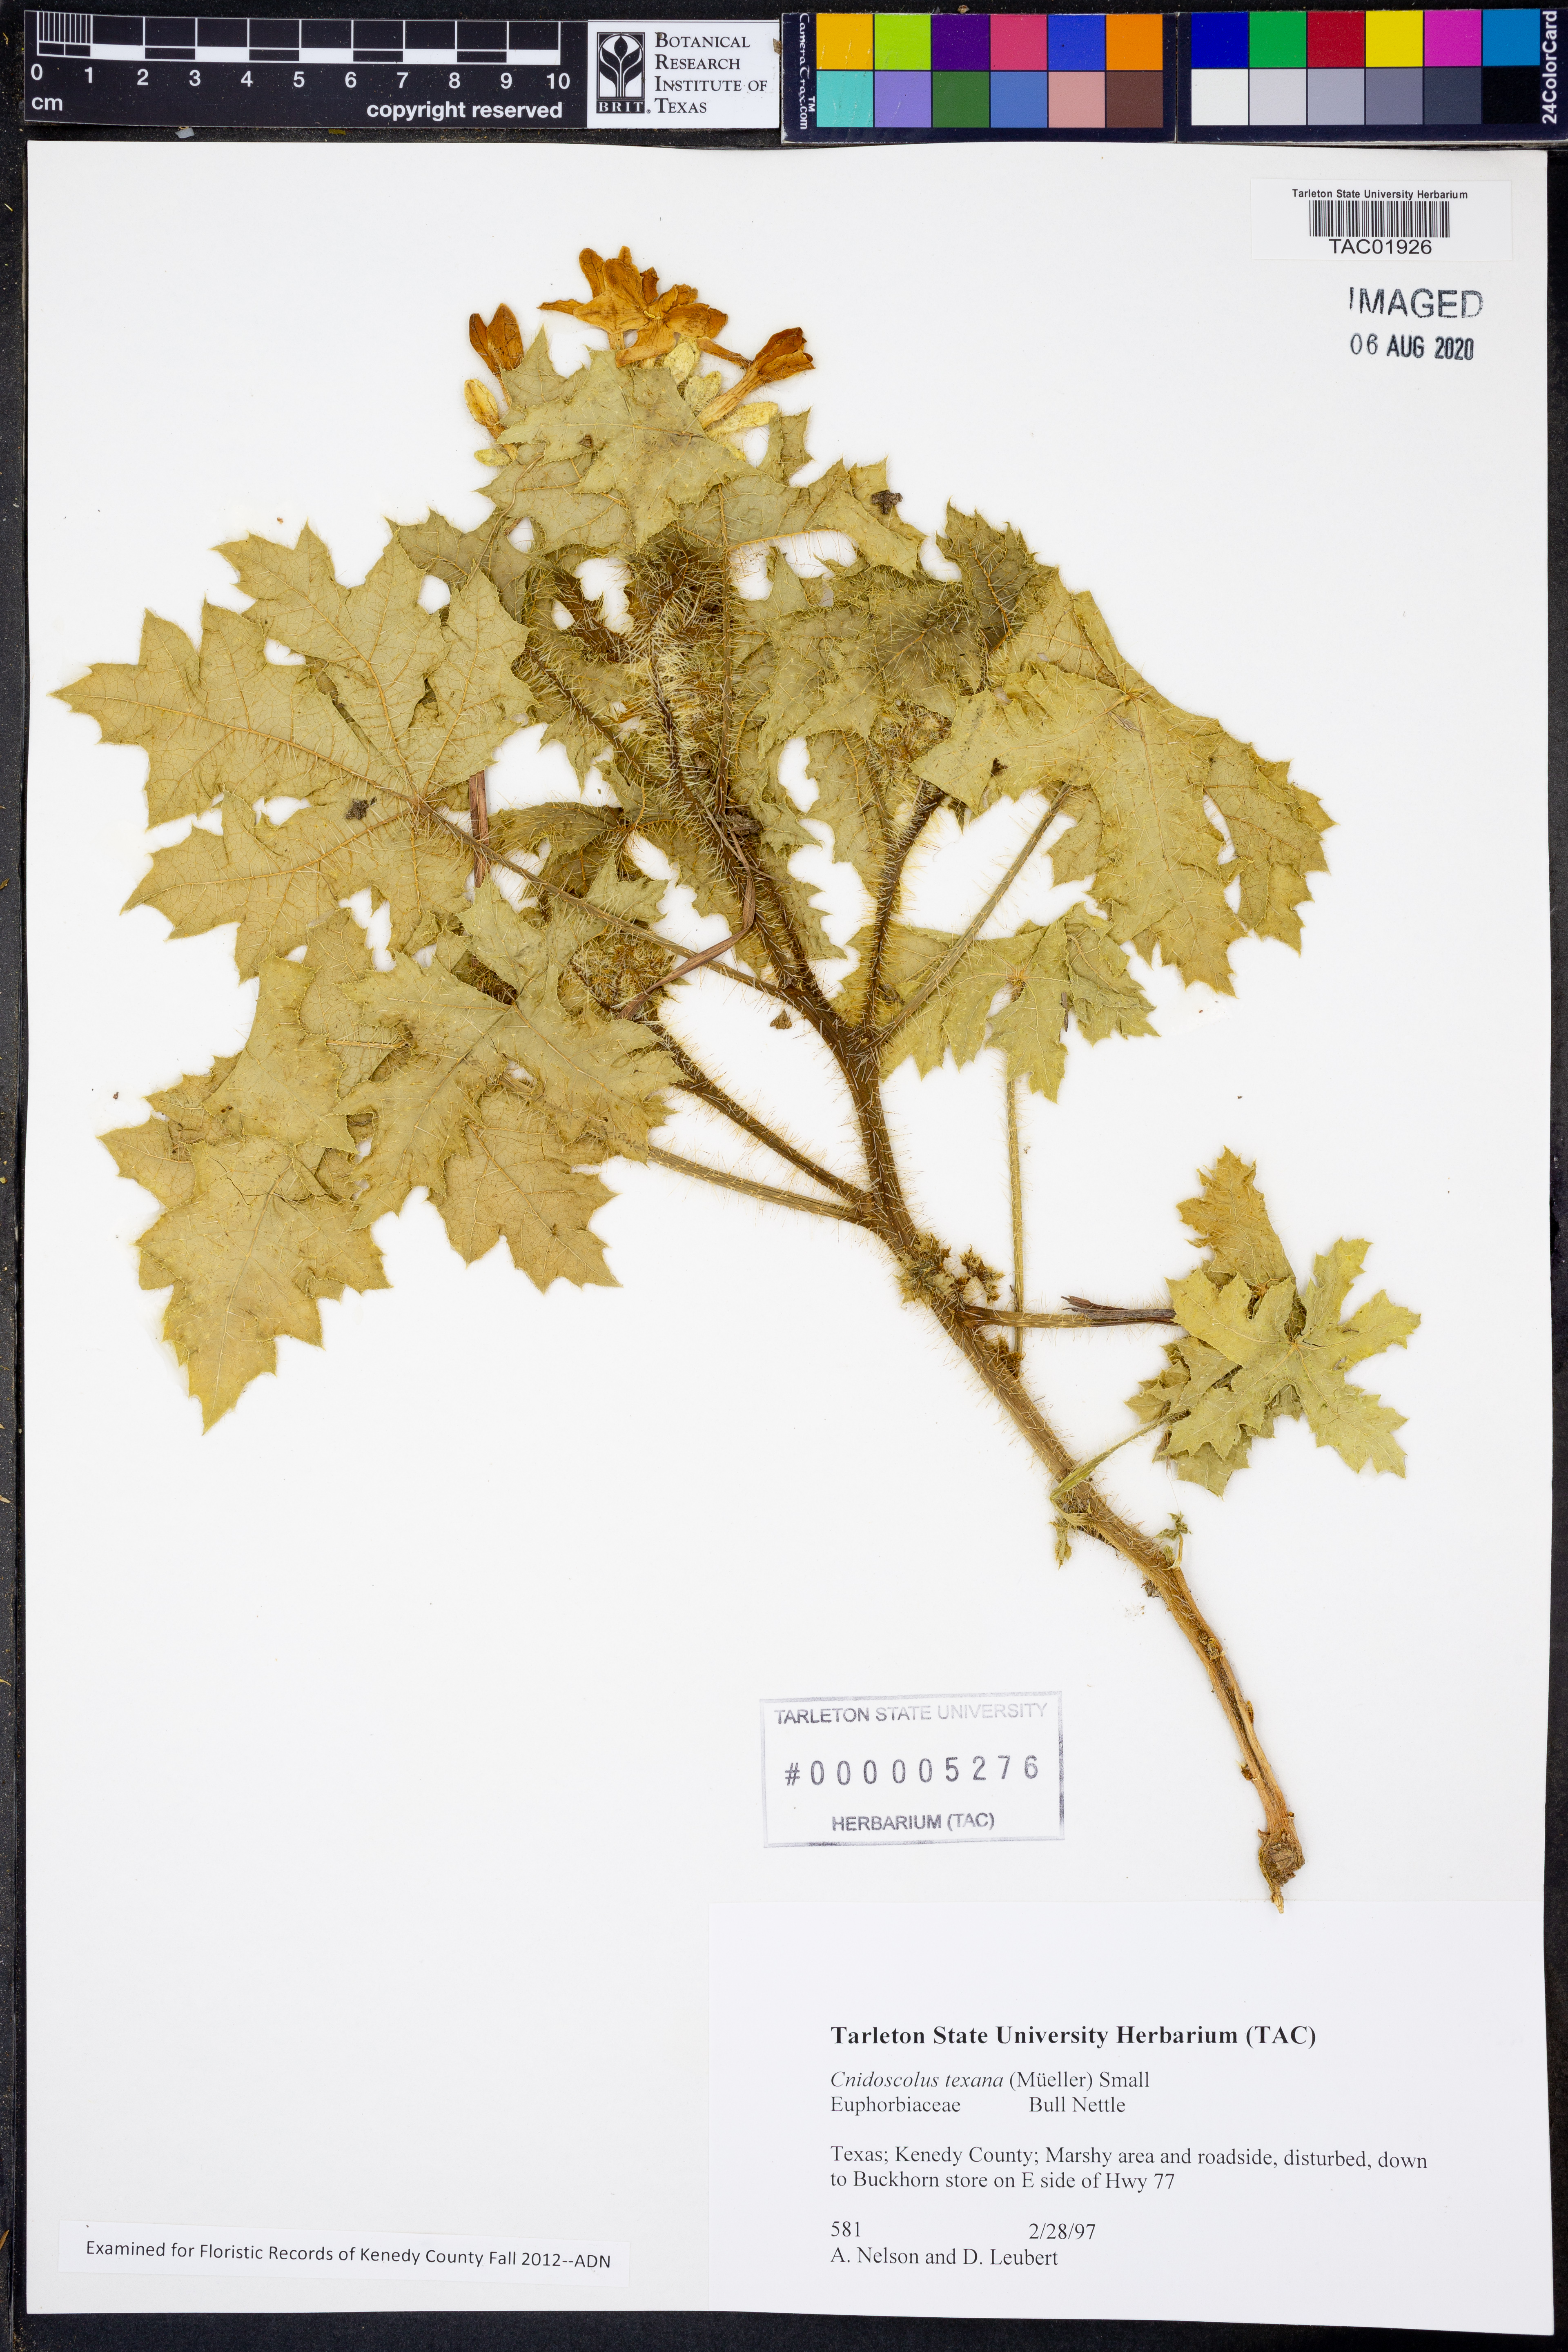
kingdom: Plantae
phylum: Tracheophyta
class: Magnoliopsida
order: Malpighiales
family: Euphorbiaceae
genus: Cnidoscolus
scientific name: Cnidoscolus texanus
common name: Texas bull-nettle
